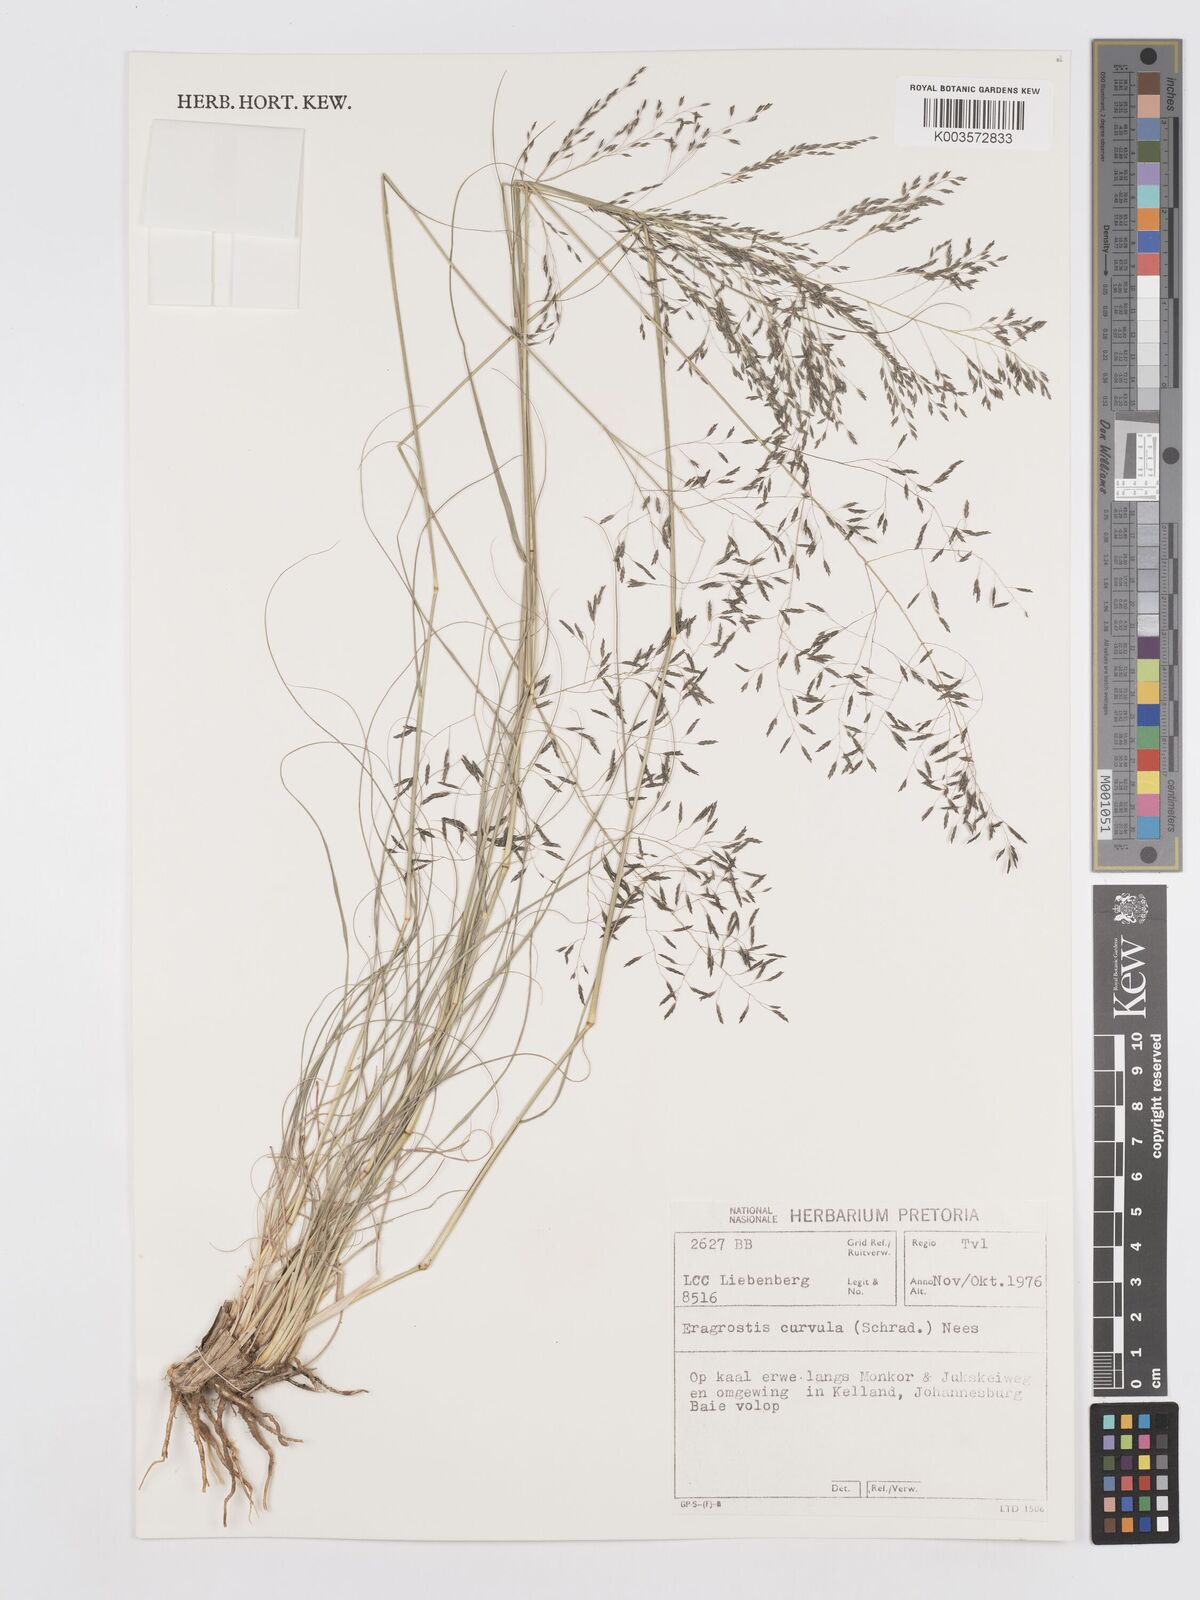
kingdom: Plantae
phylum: Tracheophyta
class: Liliopsida
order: Poales
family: Poaceae
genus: Eragrostis
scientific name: Eragrostis curvula
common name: African love-grass
